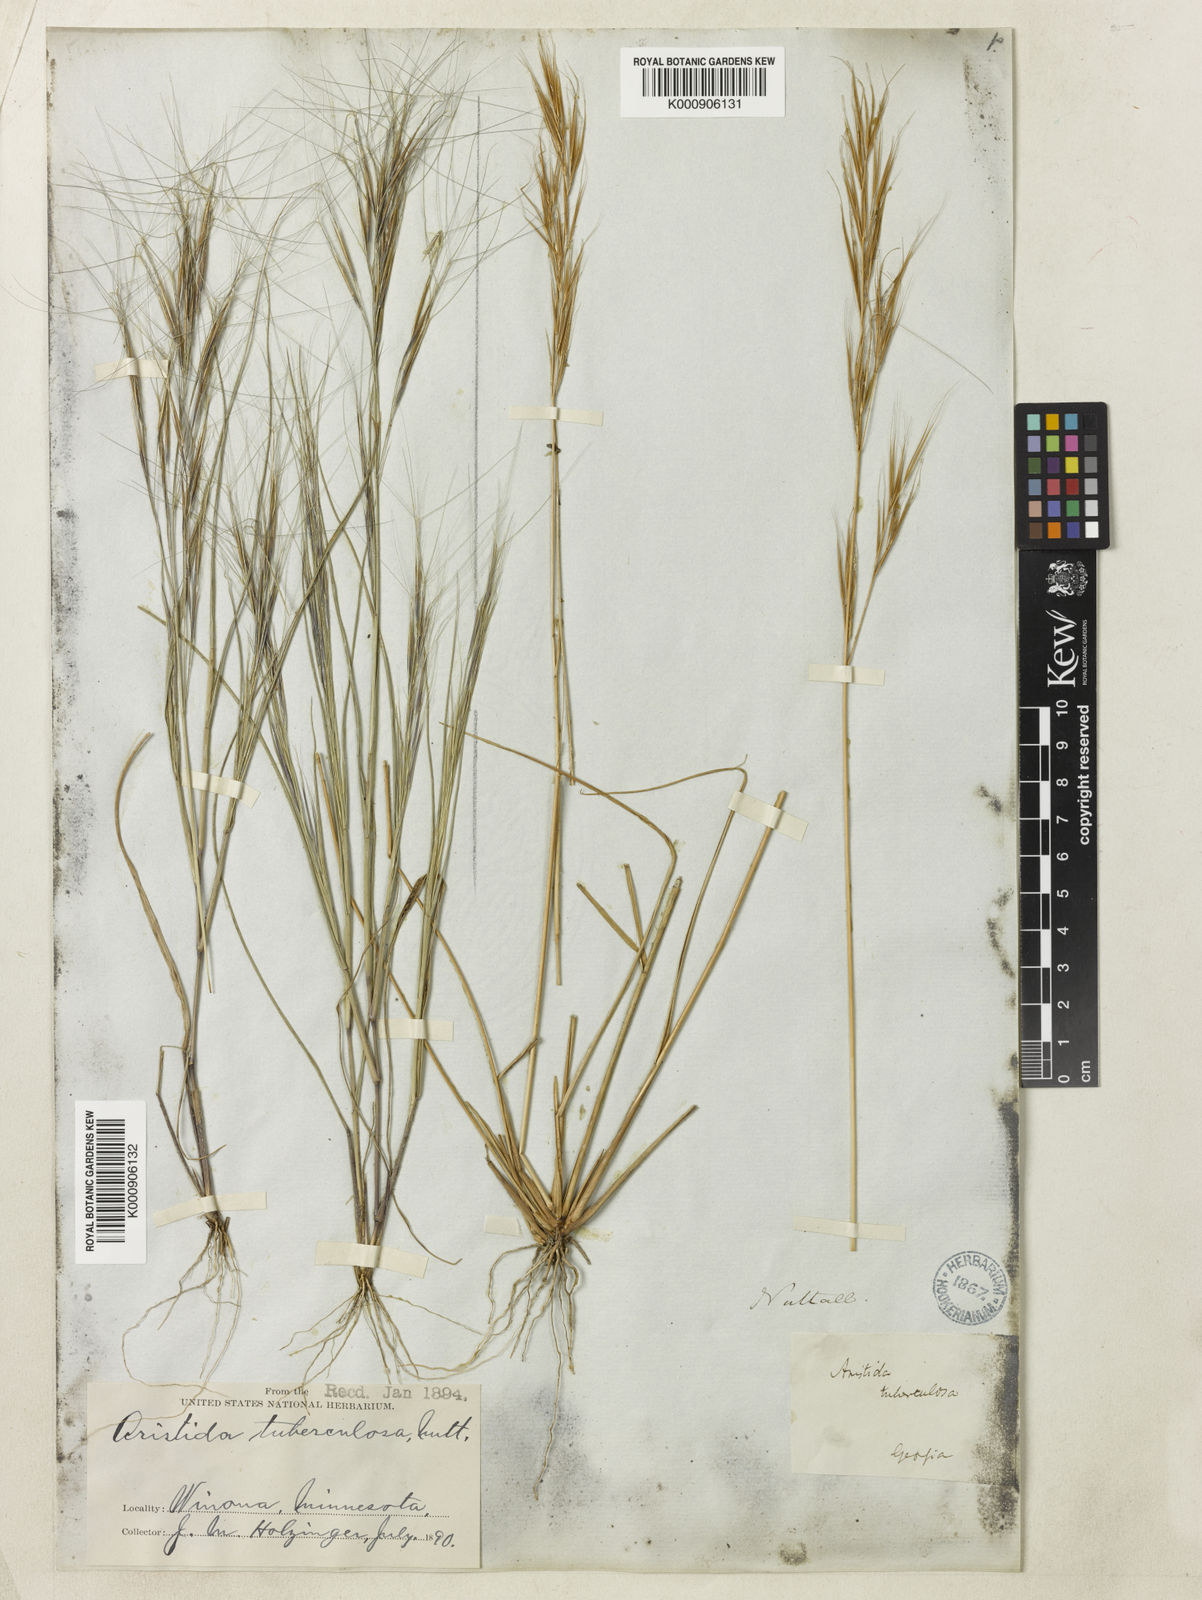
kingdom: Plantae
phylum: Tracheophyta
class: Liliopsida
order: Poales
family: Poaceae
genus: Aristida
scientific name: Aristida tuberculosa
